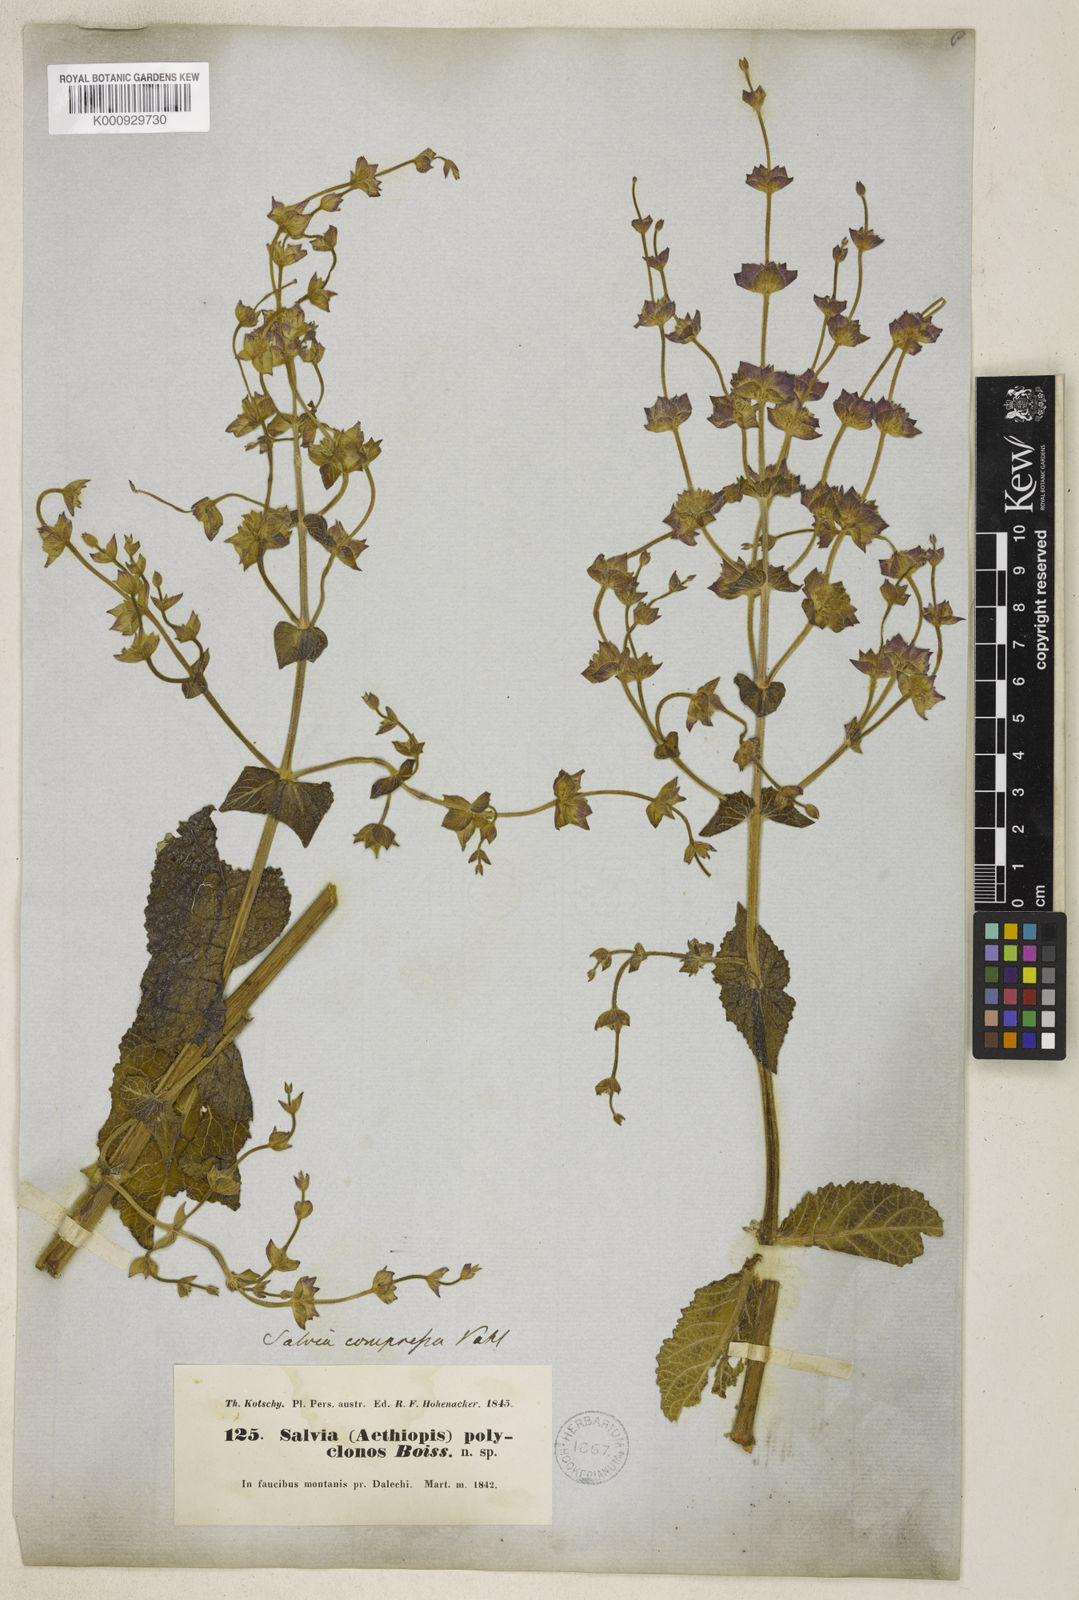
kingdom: Plantae
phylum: Tracheophyta
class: Magnoliopsida
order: Lamiales
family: Lamiaceae
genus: Salvia
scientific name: Salvia compressa
